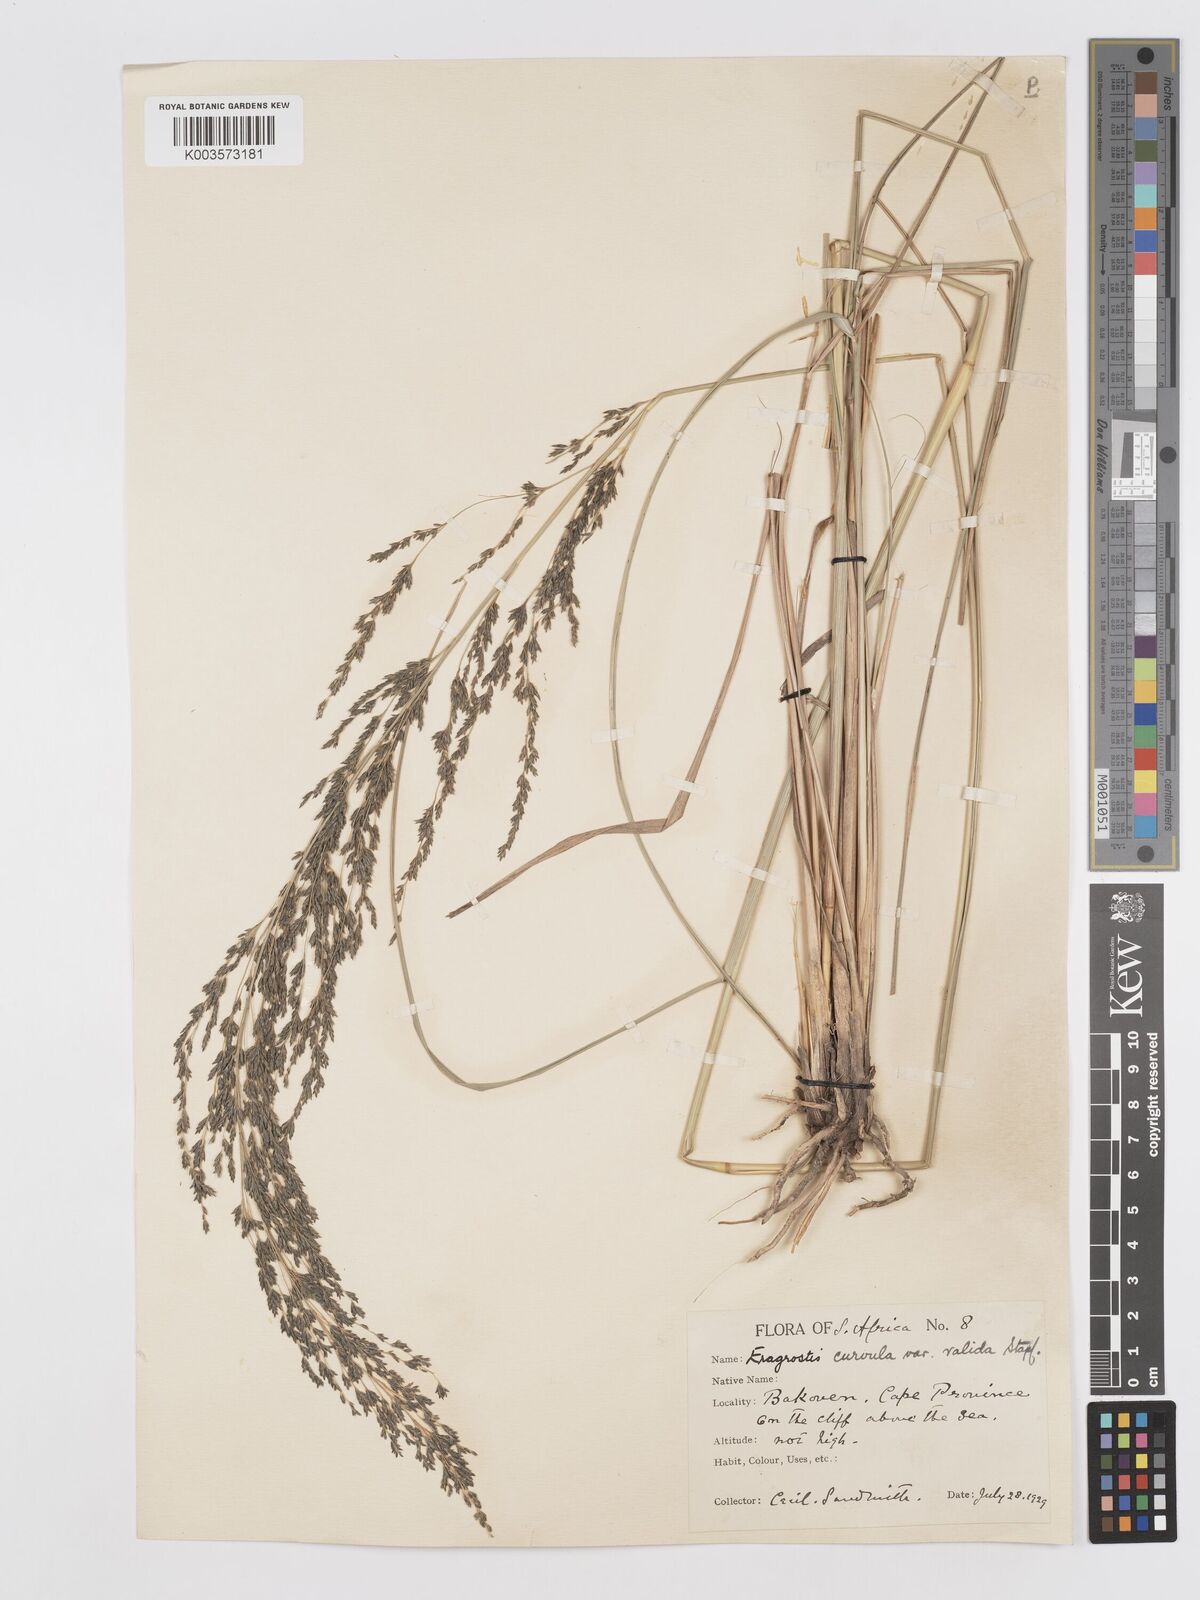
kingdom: Plantae
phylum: Tracheophyta
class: Liliopsida
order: Poales
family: Poaceae
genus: Eragrostis
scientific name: Eragrostis curvula
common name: African love-grass
